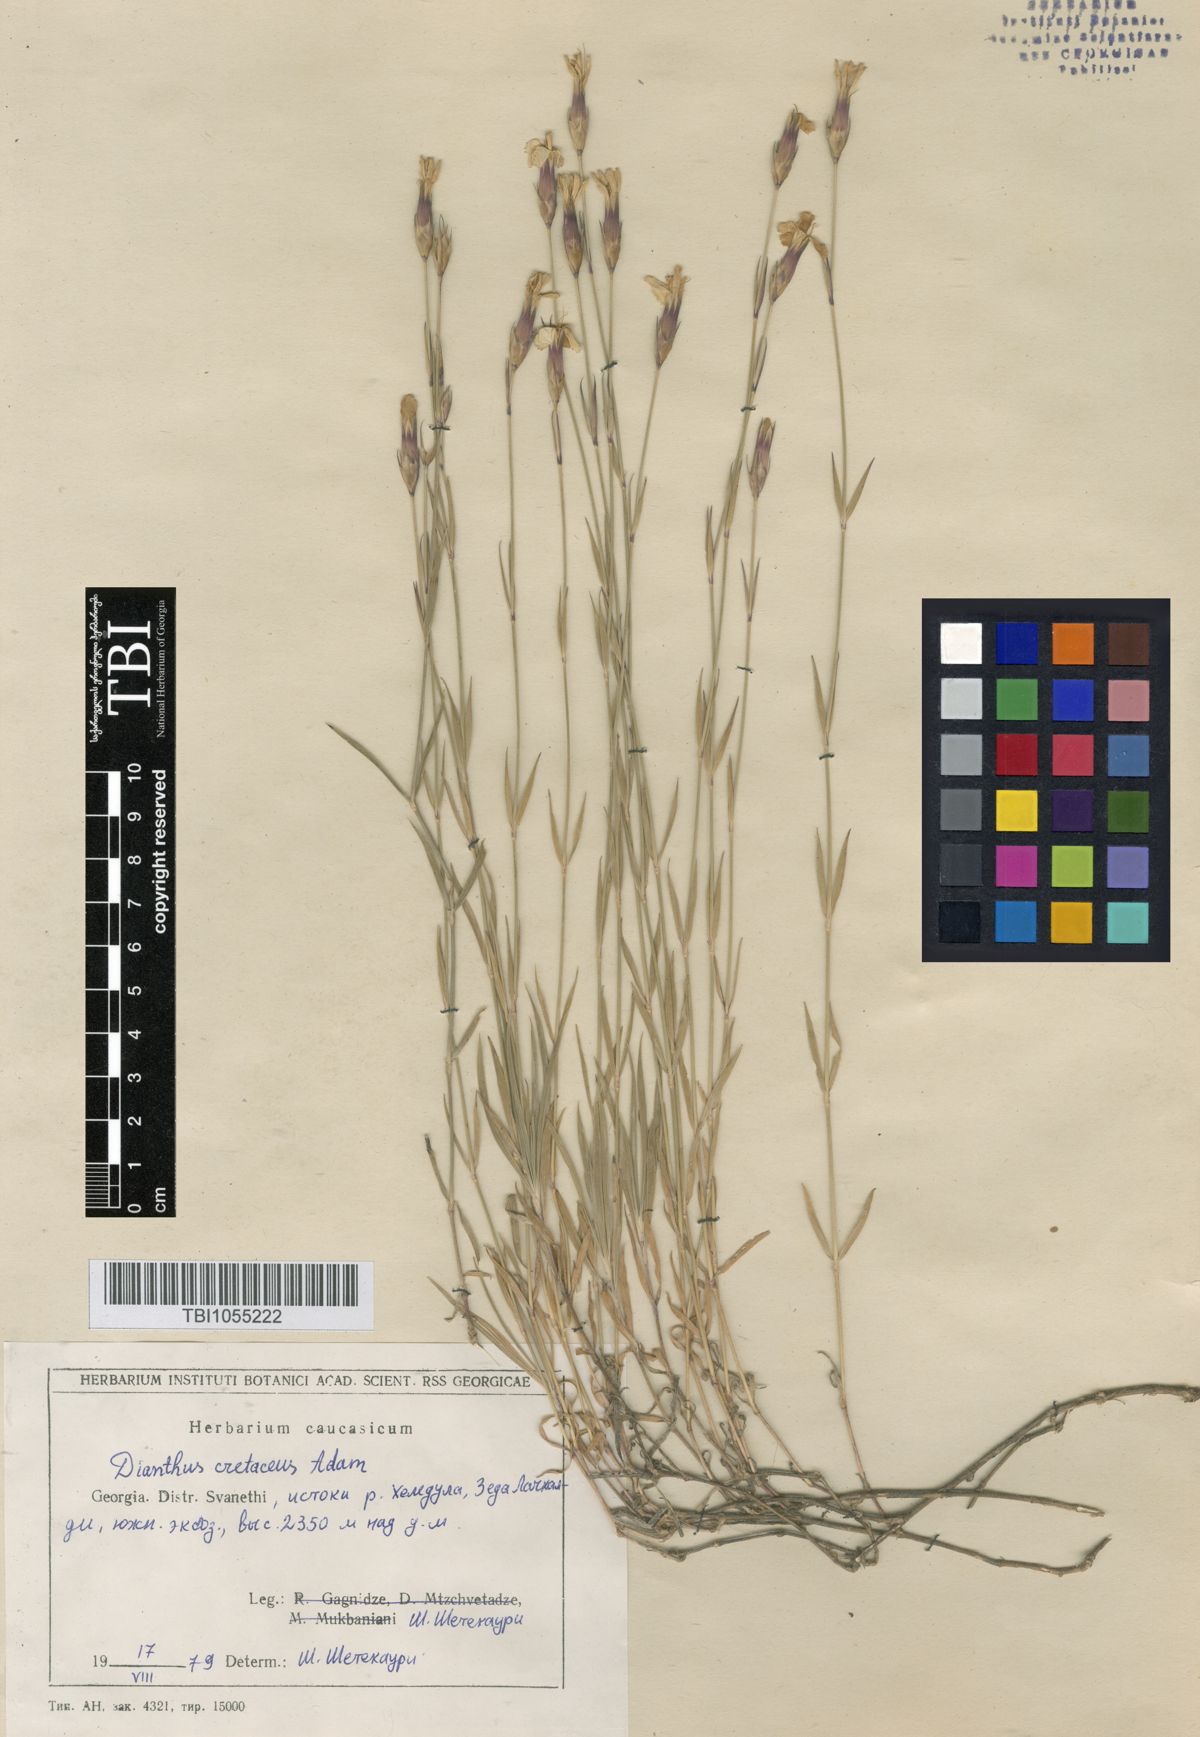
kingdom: Plantae
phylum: Tracheophyta
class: Magnoliopsida
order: Caryophyllales
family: Caryophyllaceae
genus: Dianthus
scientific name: Dianthus cretaceus
